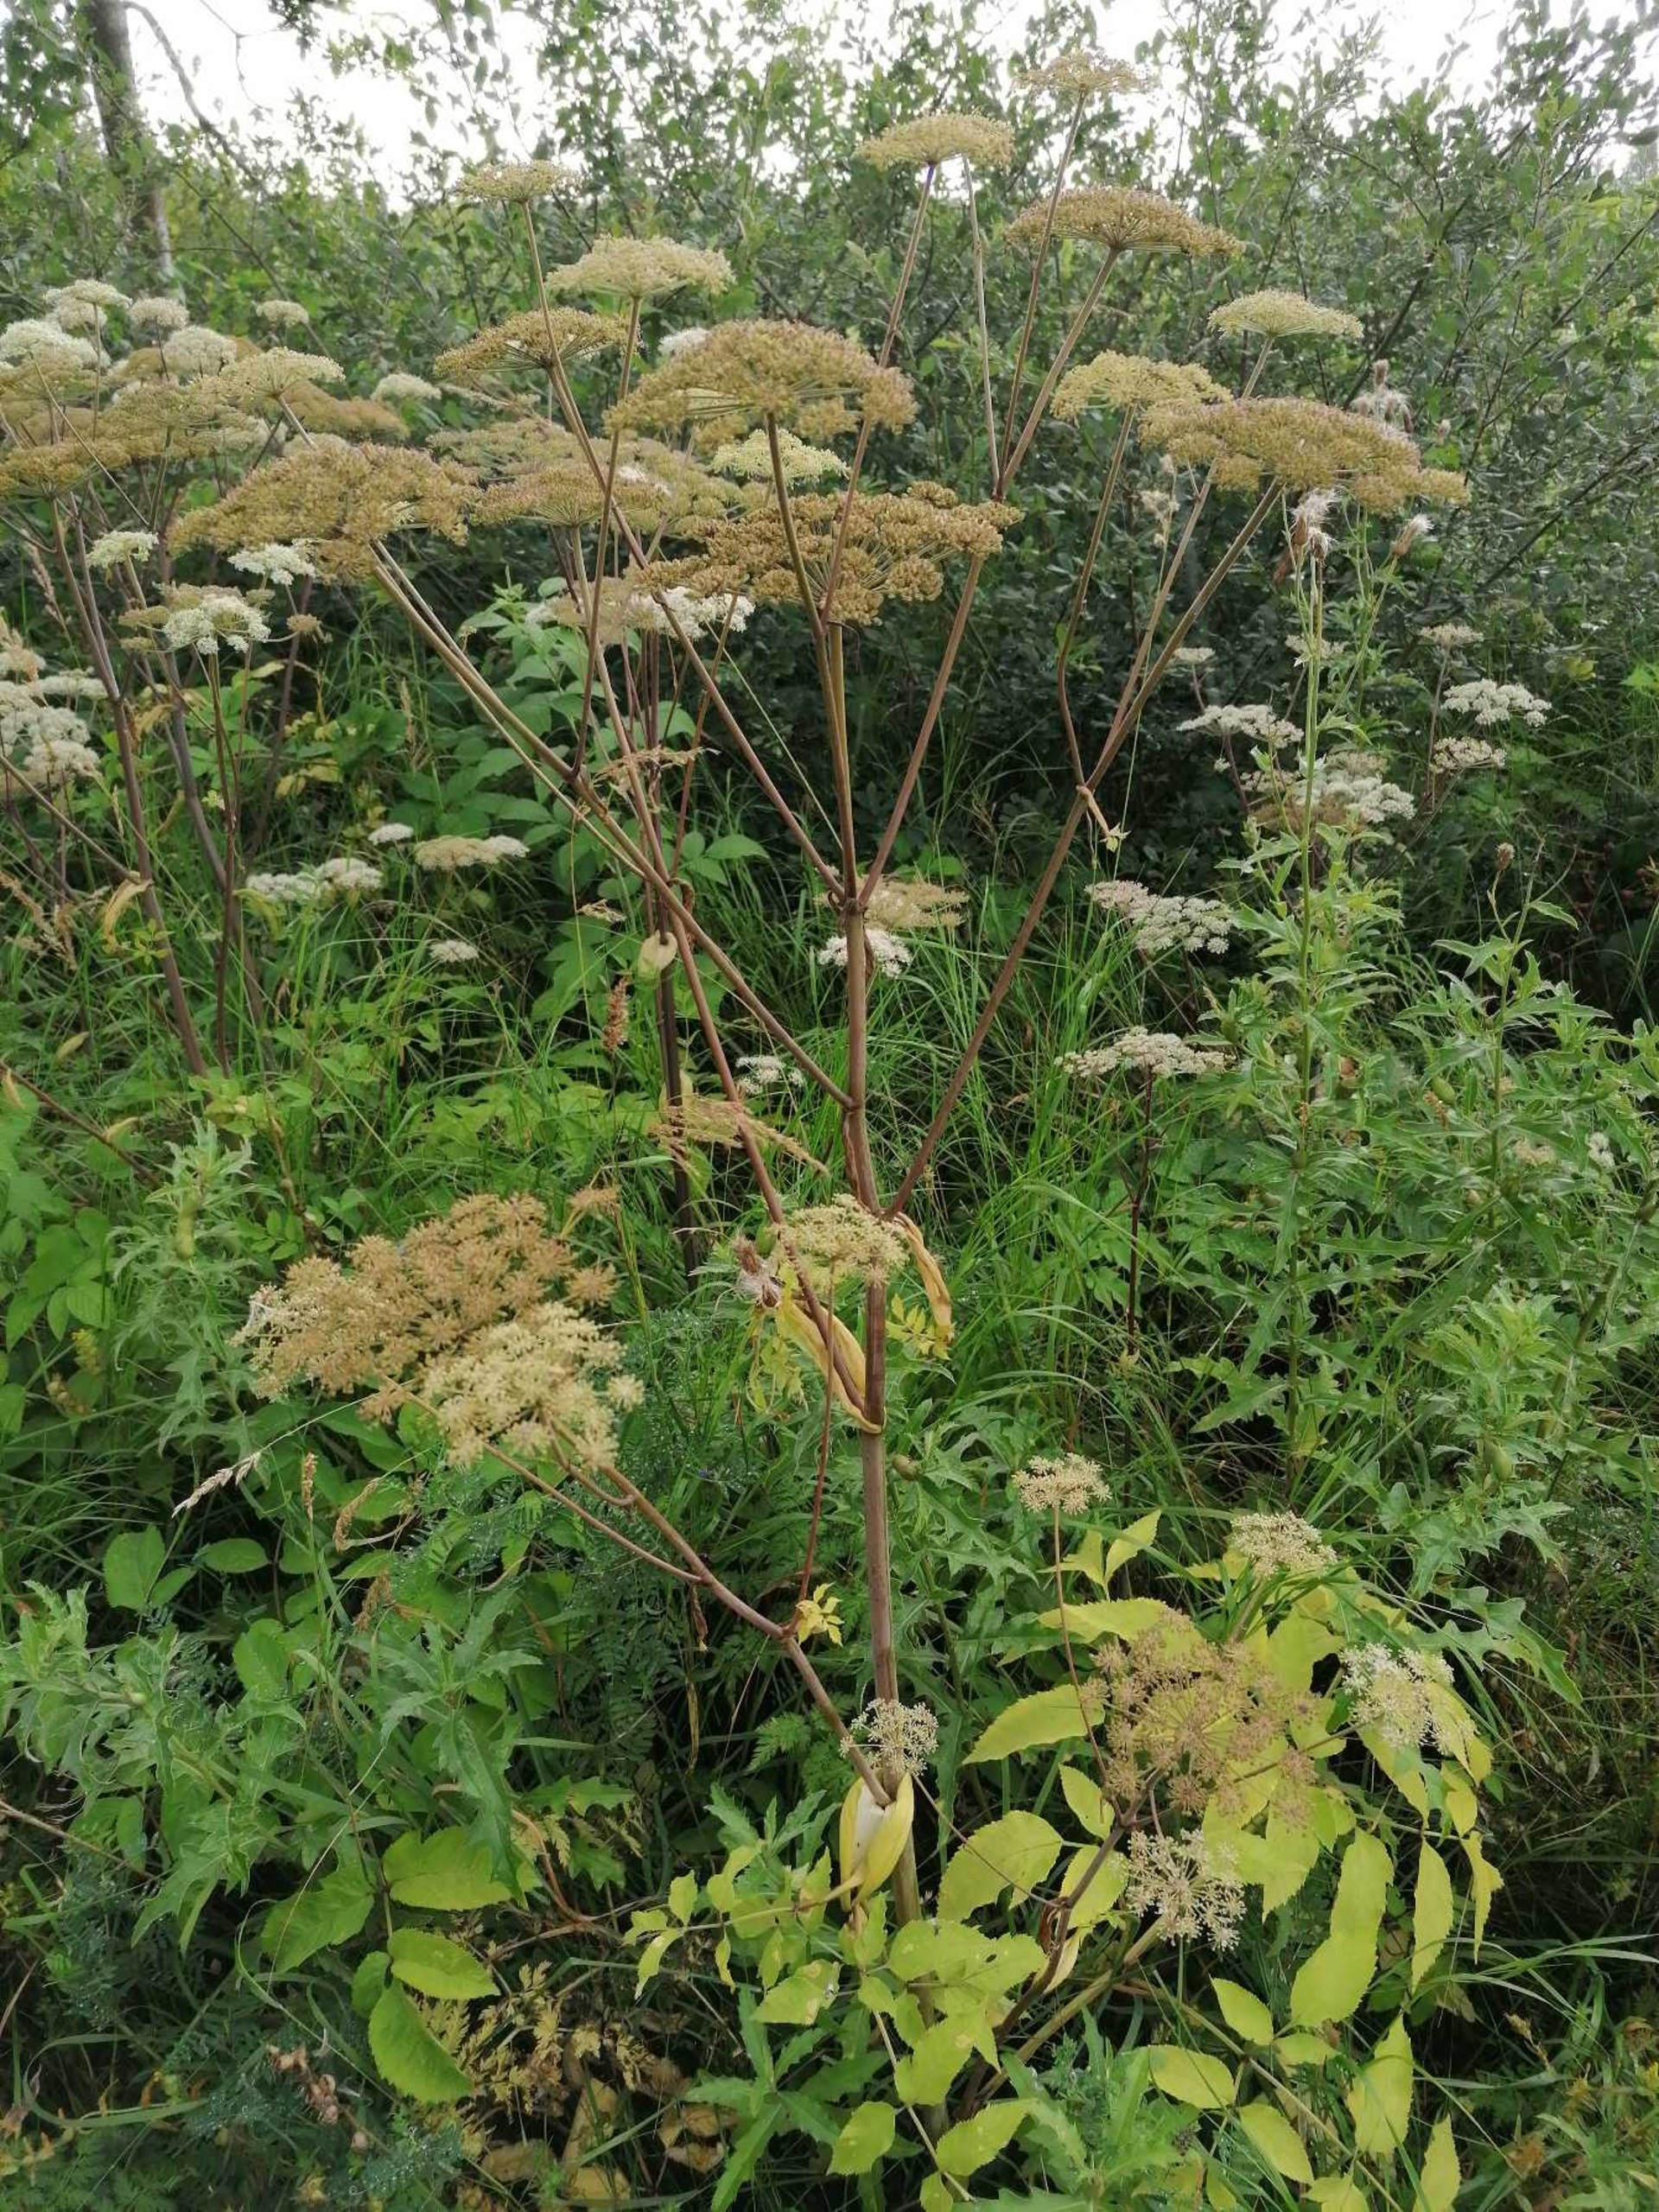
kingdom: Plantae
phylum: Tracheophyta
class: Magnoliopsida
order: Apiales
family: Apiaceae
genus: Angelica
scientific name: Angelica sylvestris
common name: Angelik
